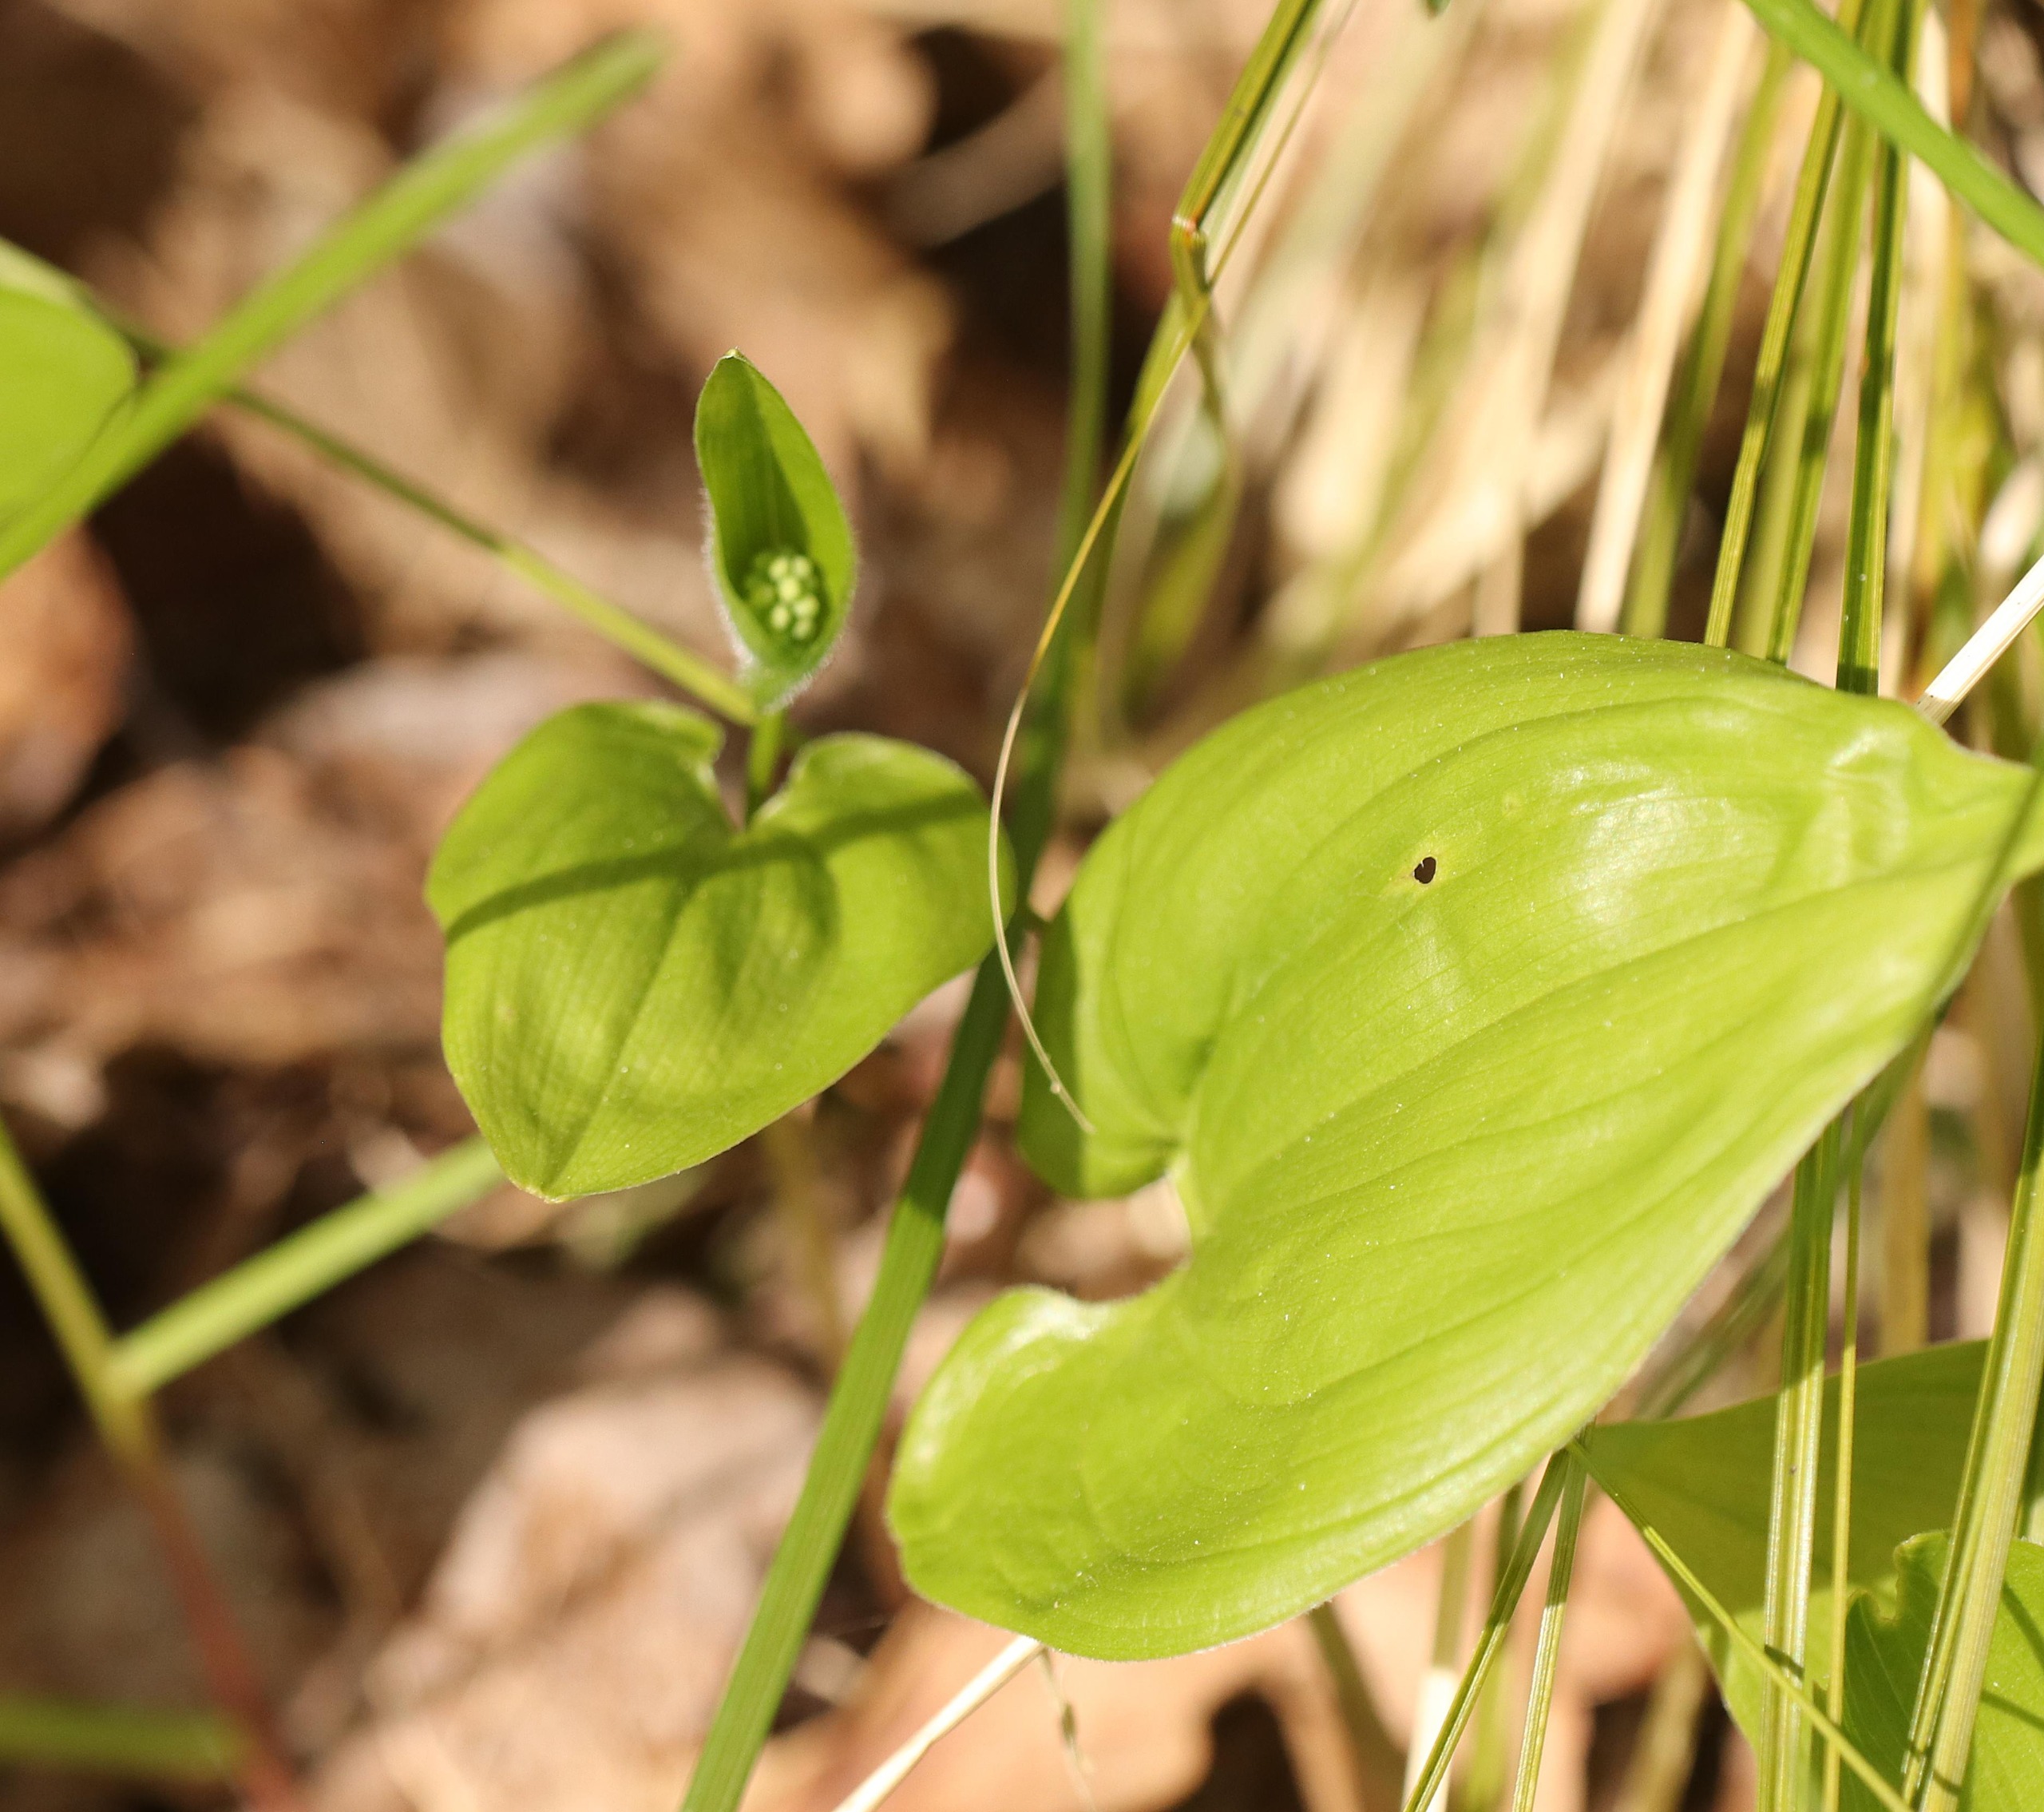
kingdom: Plantae
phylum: Tracheophyta
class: Liliopsida
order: Asparagales
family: Asparagaceae
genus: Maianthemum
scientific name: Maianthemum bifolium
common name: Majblomst
